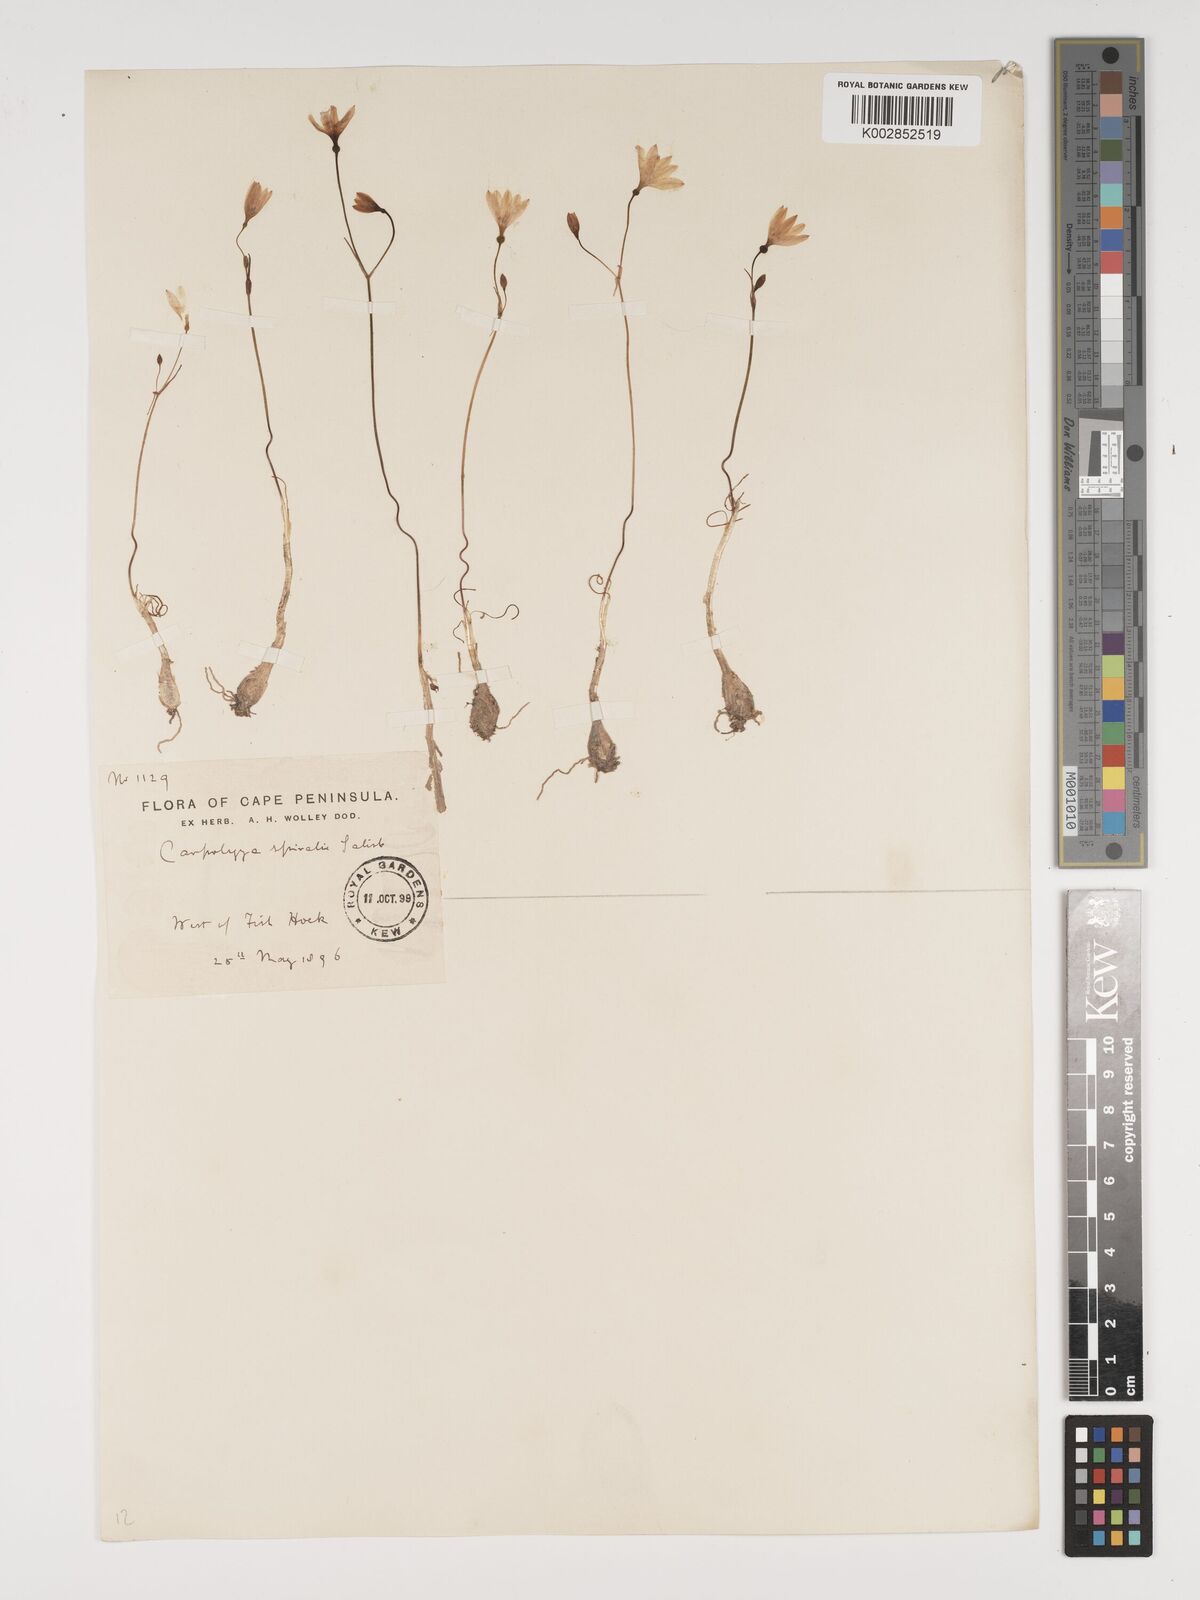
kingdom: Plantae
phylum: Tracheophyta
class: Liliopsida
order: Asparagales
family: Amaryllidaceae
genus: Strumaria
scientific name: Strumaria spiralis
